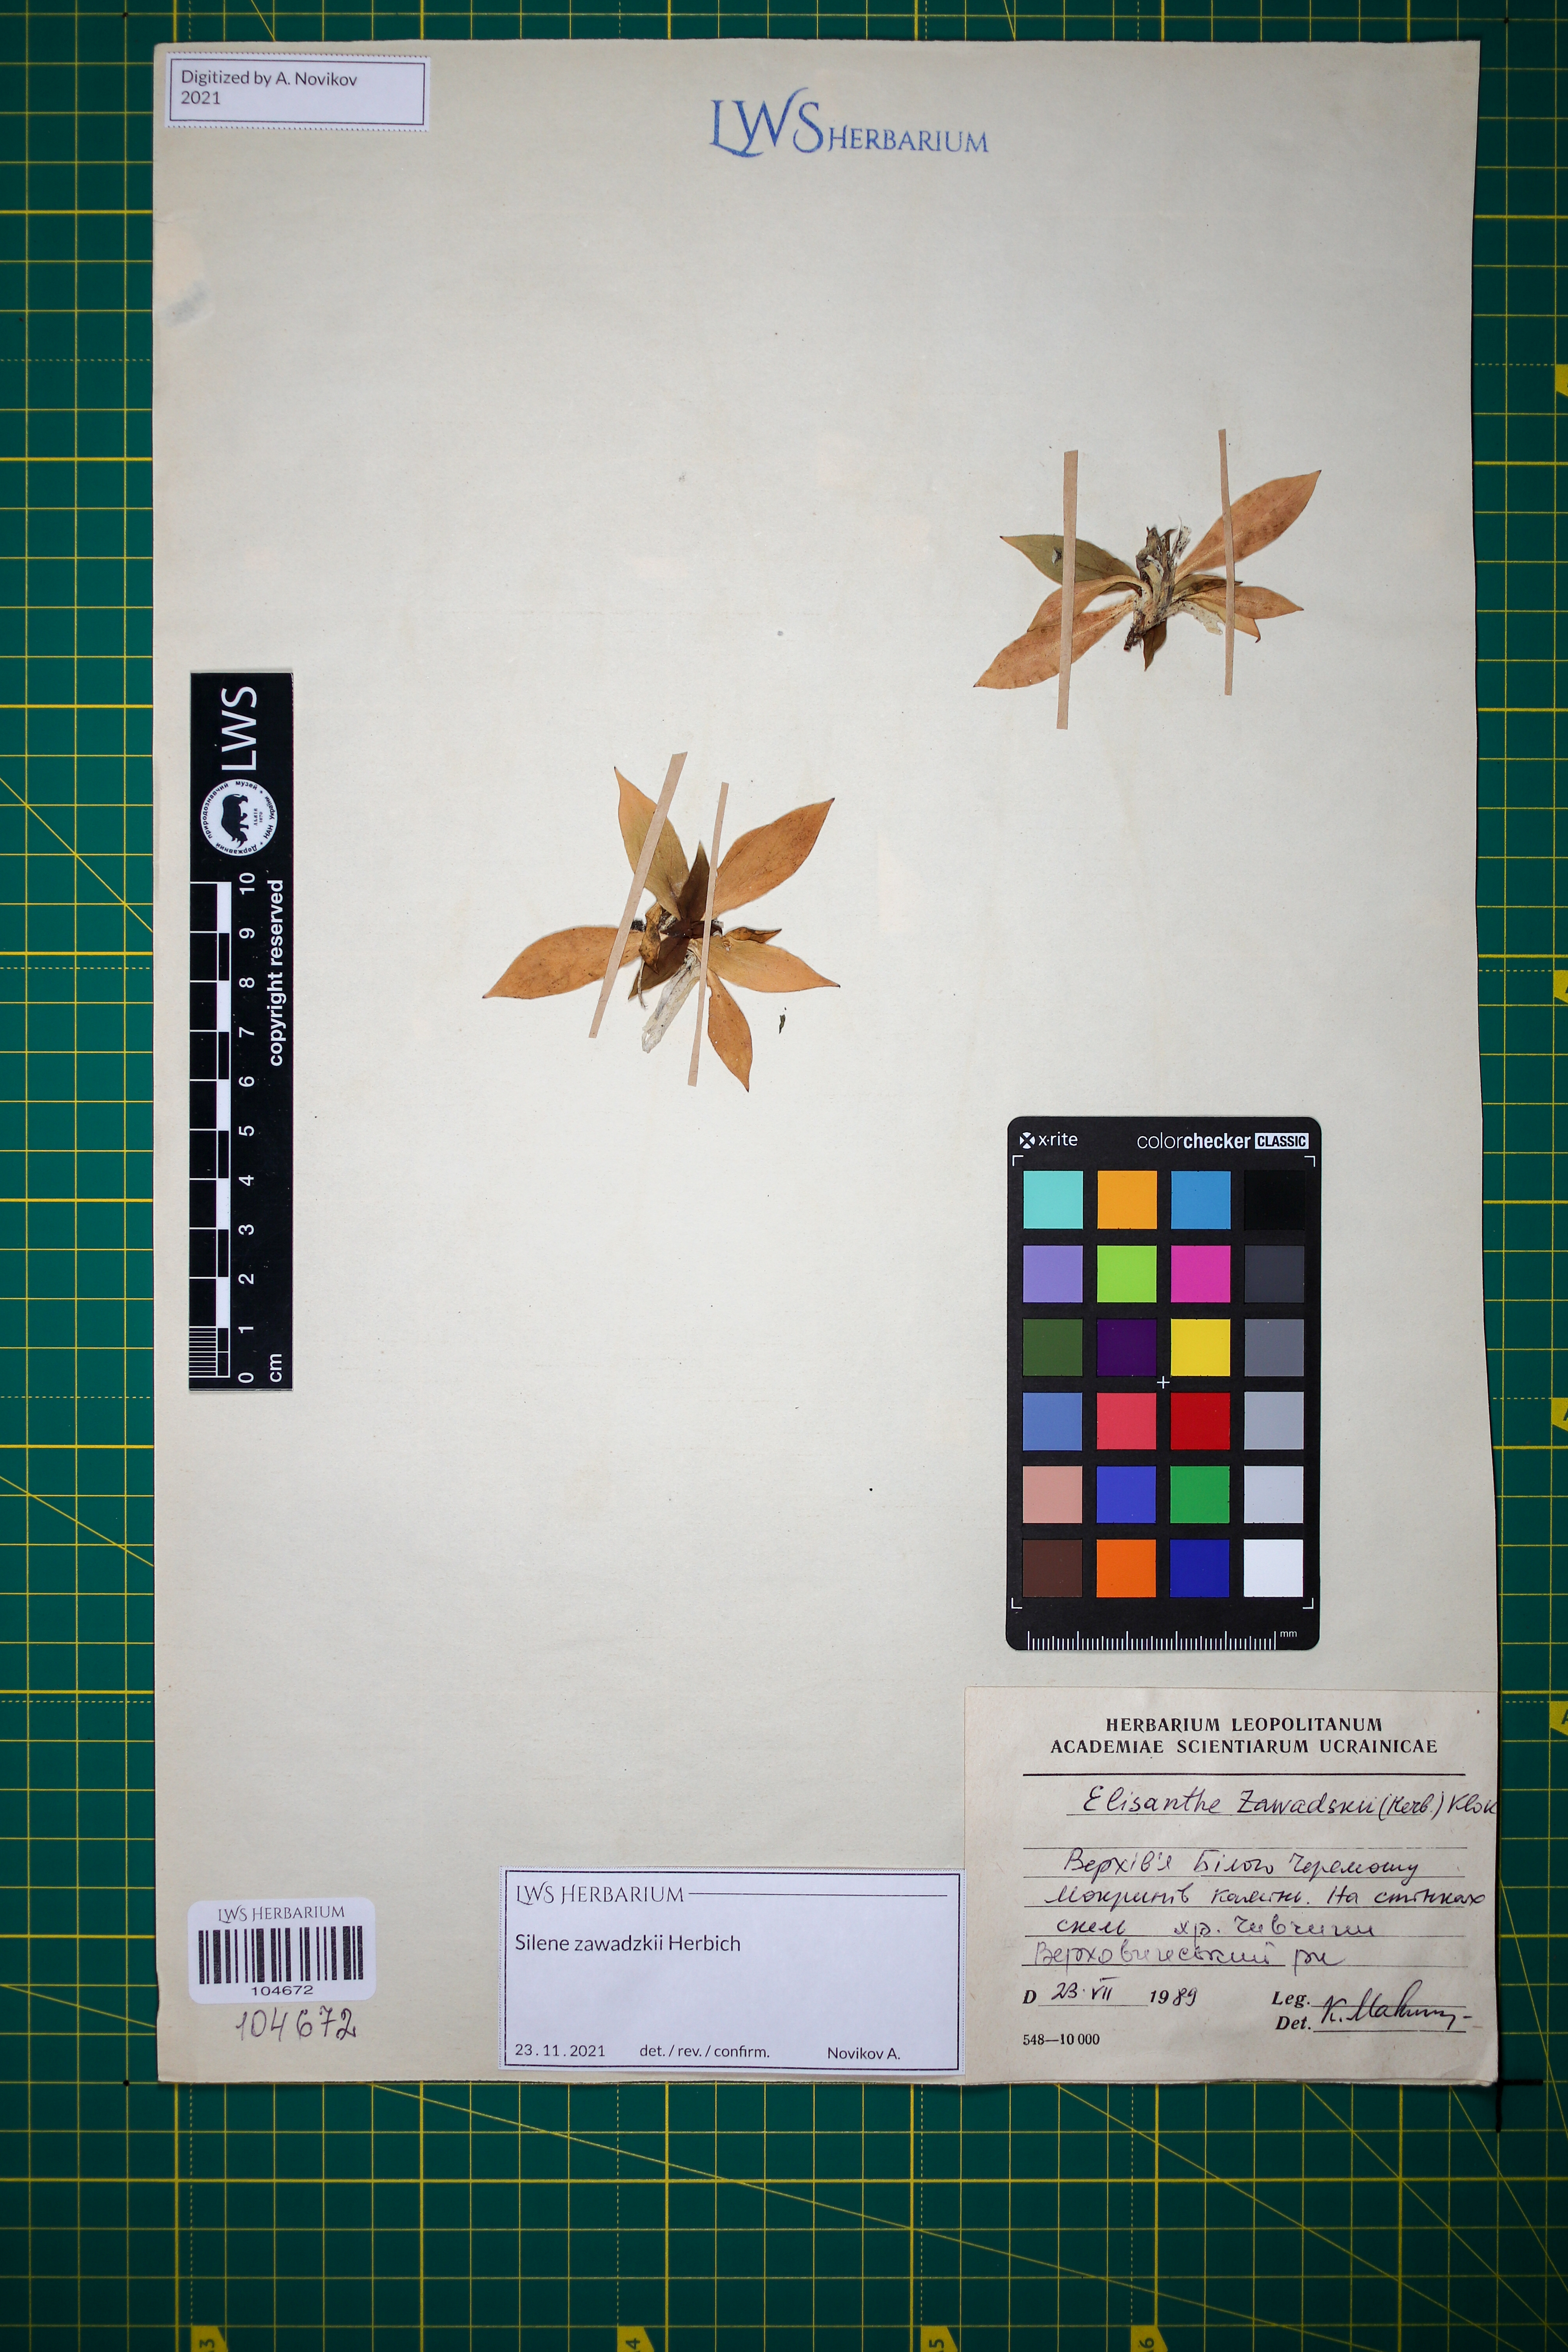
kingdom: Plantae
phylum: Tracheophyta
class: Magnoliopsida
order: Caryophyllales
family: Caryophyllaceae
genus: Silene
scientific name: Silene zawadzkii
